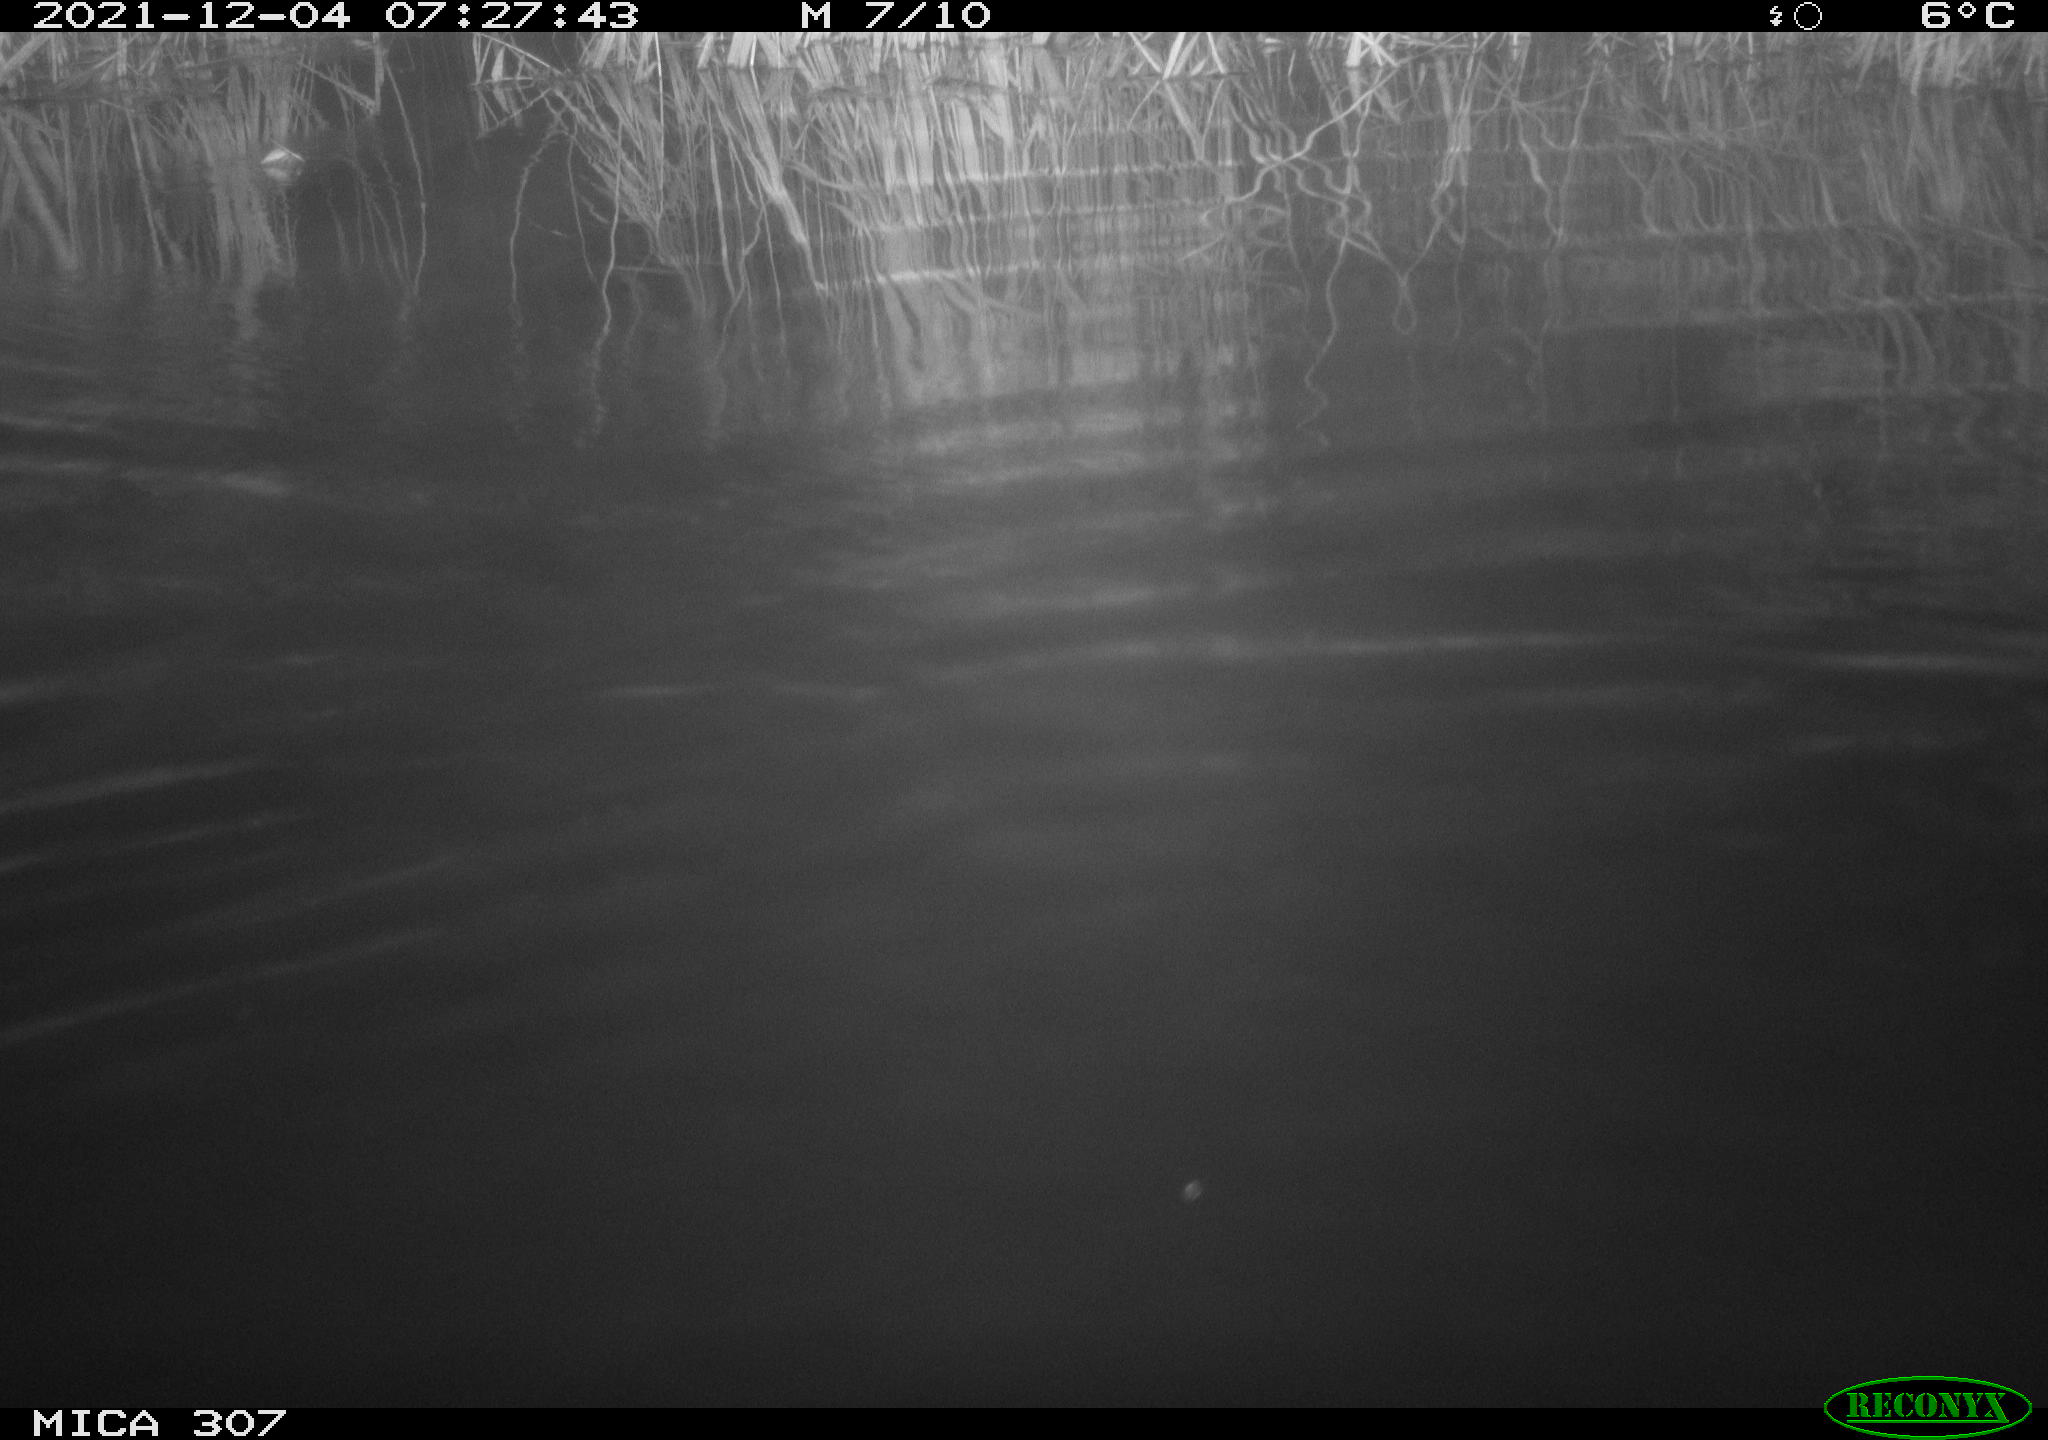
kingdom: Animalia
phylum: Chordata
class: Mammalia
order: Rodentia
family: Muridae
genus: Rattus
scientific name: Rattus norvegicus
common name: Brown rat
